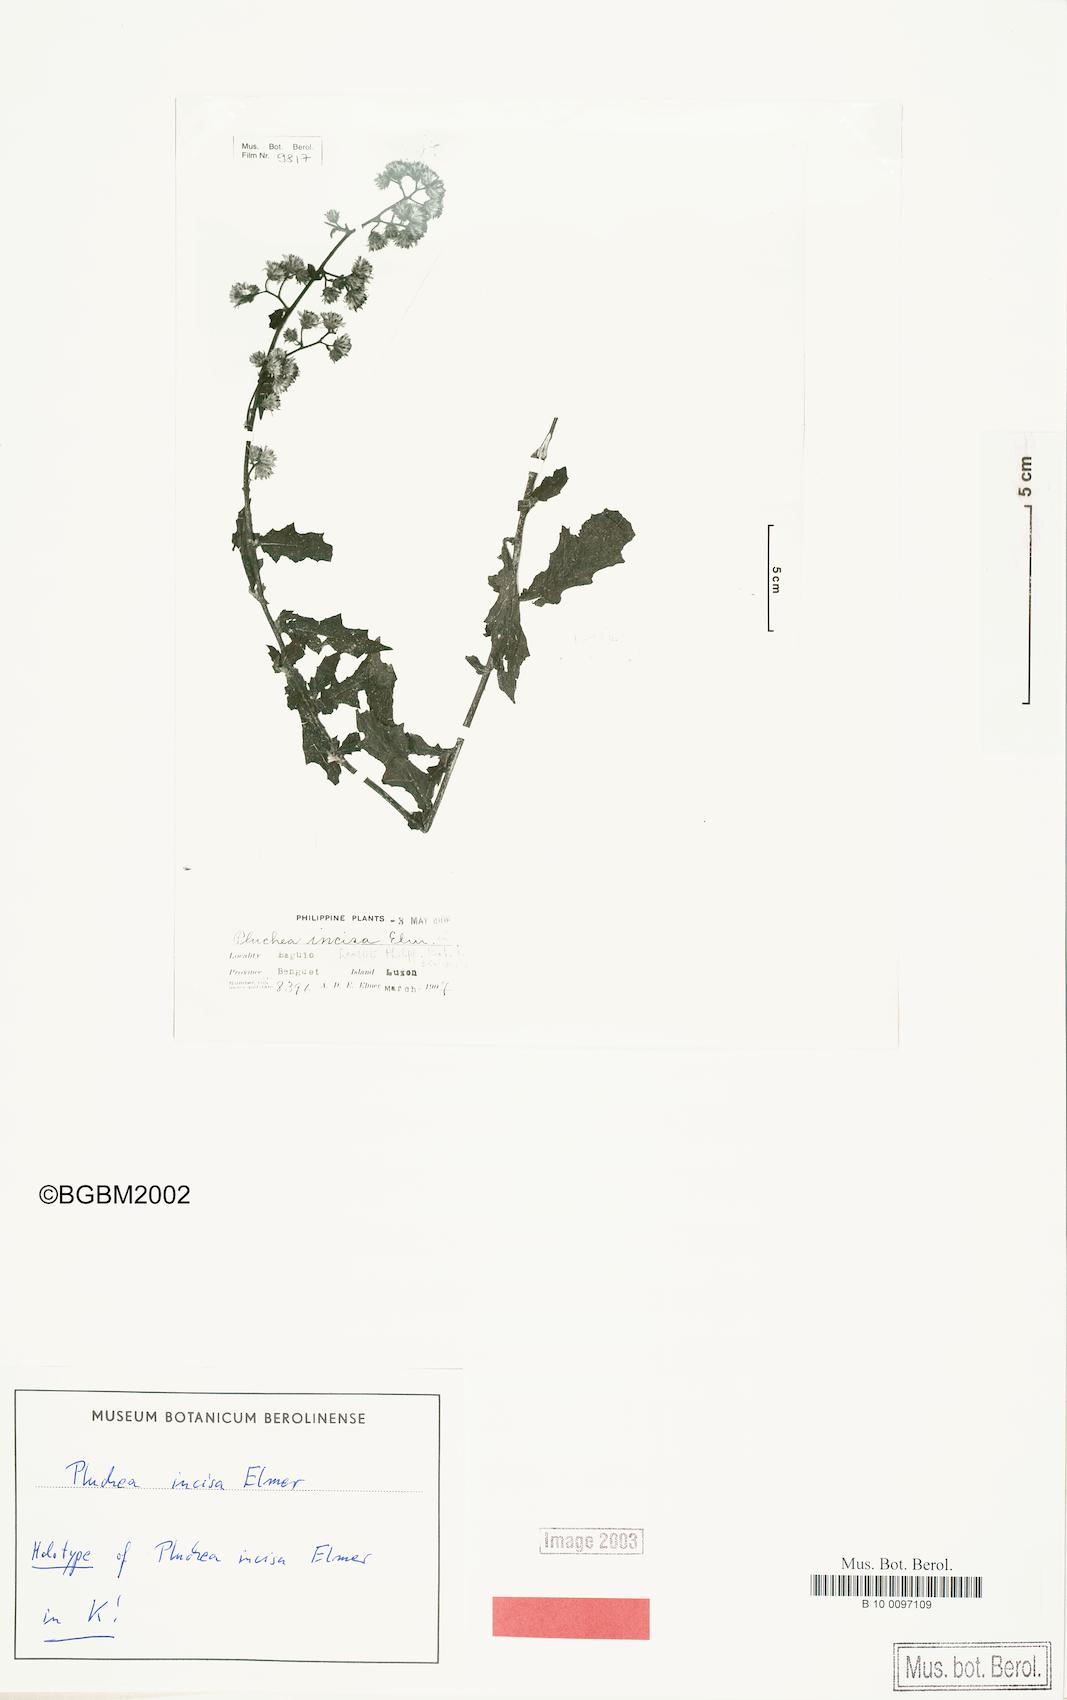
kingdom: Plantae
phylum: Tracheophyta
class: Magnoliopsida
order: Asterales
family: Asteraceae
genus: Blumea
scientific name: Blumea incisa
